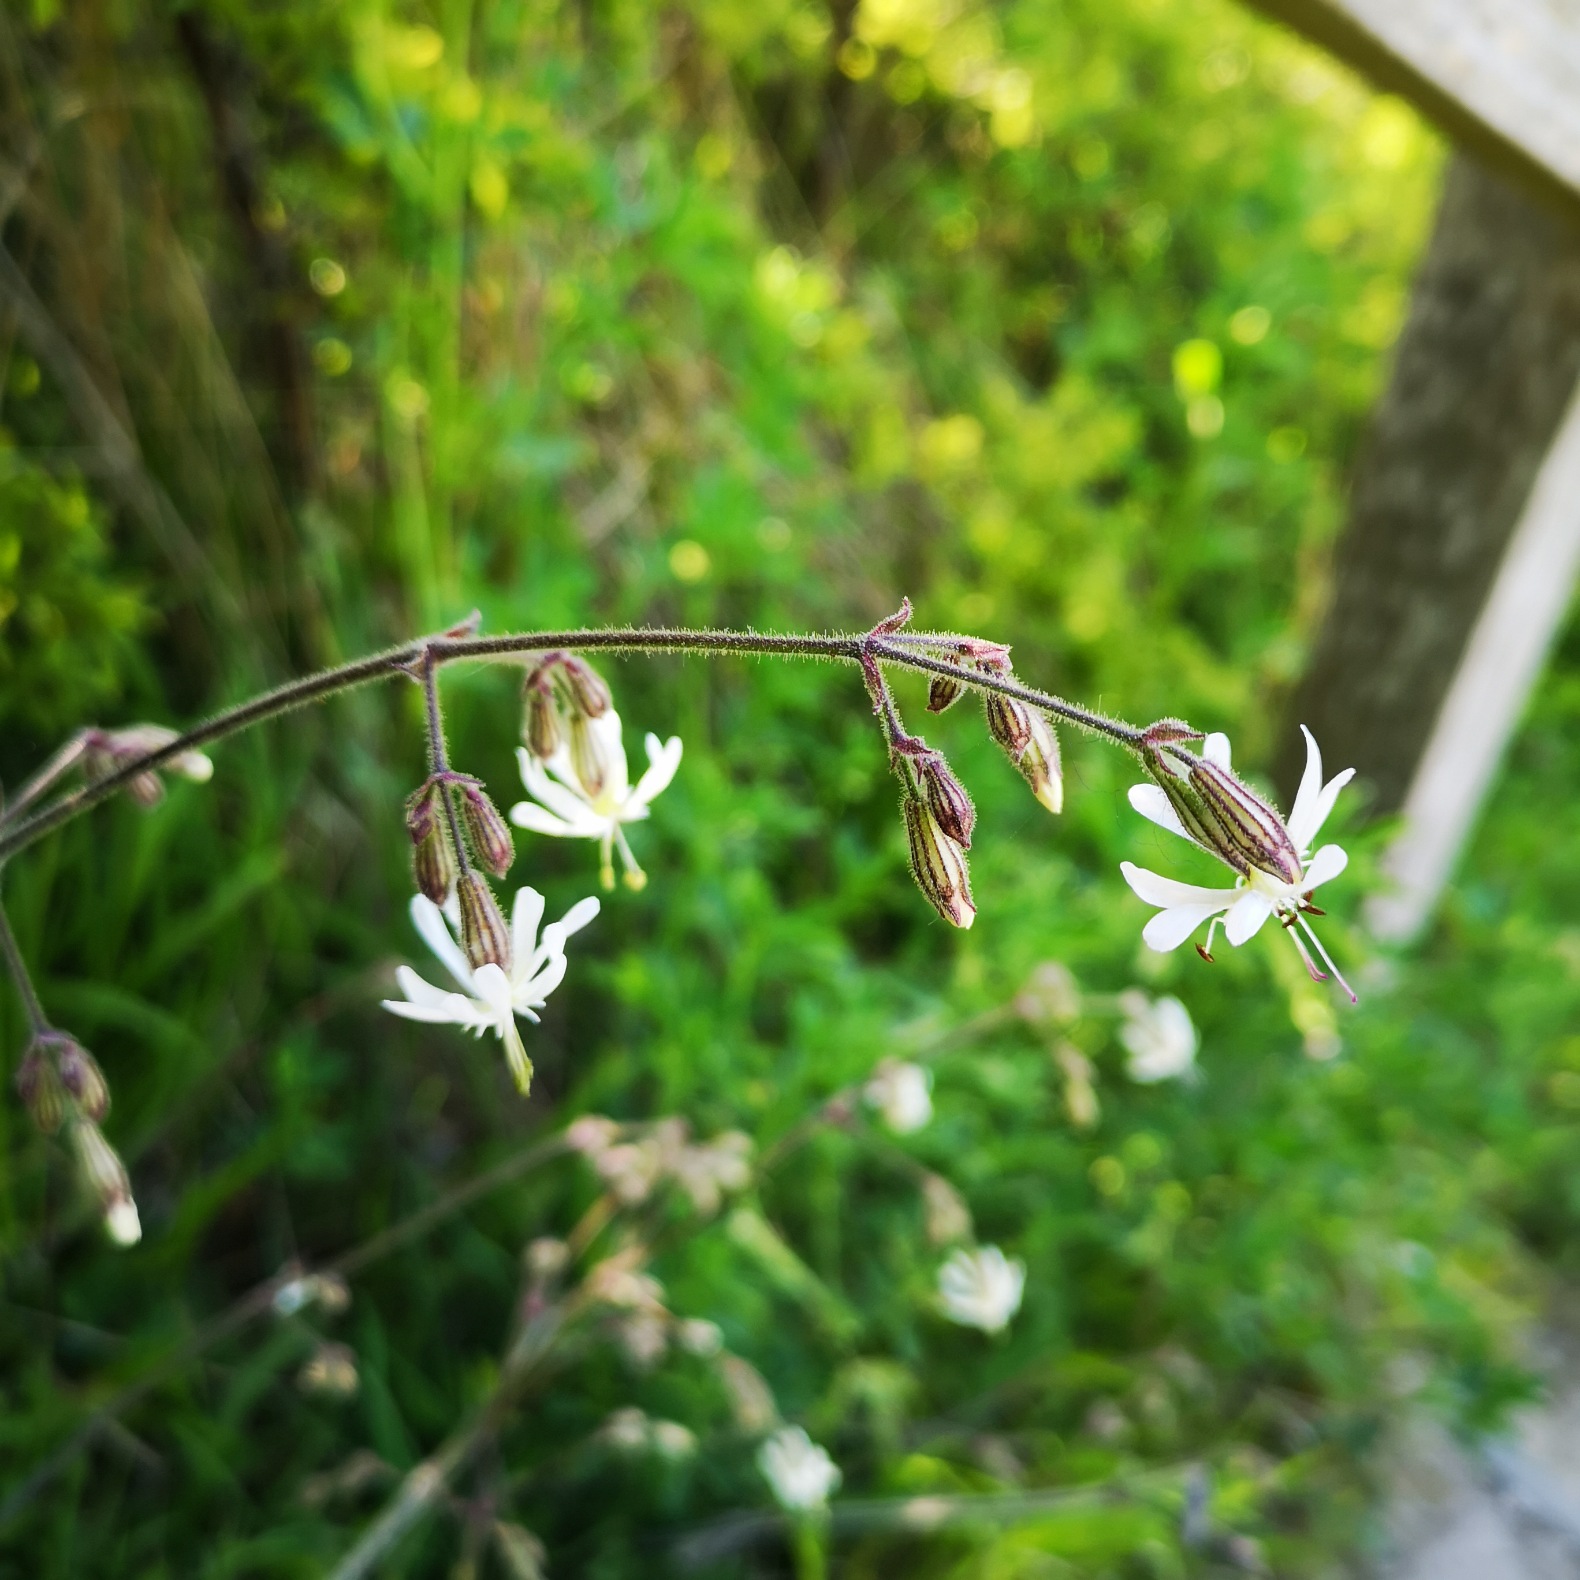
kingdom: Plantae
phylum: Tracheophyta
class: Magnoliopsida
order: Caryophyllales
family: Caryophyllaceae
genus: Silene
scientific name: Silene nutans
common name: Nikkende limurt
